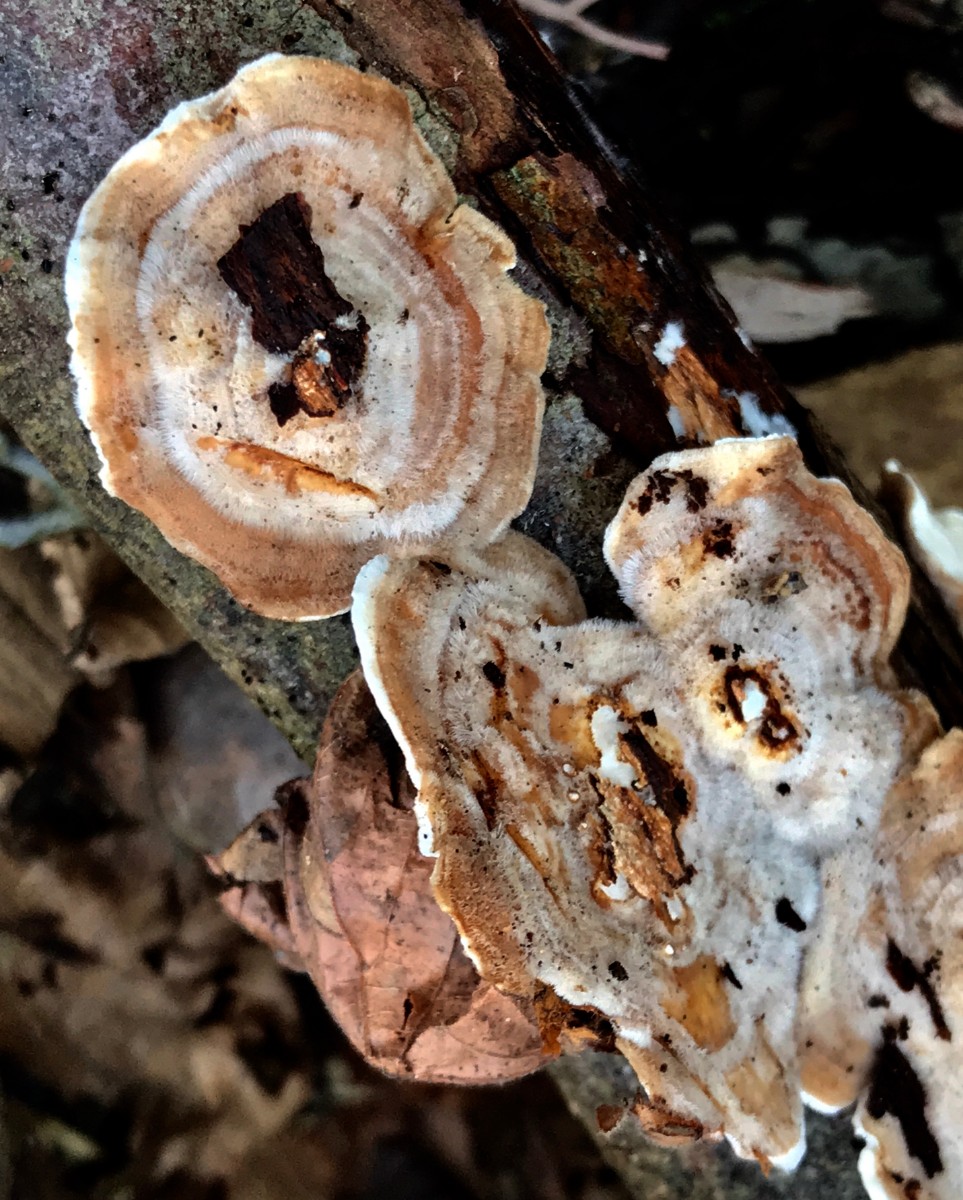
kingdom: Fungi
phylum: Basidiomycota
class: Agaricomycetes
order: Polyporales
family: Polyporaceae
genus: Trametes
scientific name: Trametes hirsuta
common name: håret læderporesvamp
